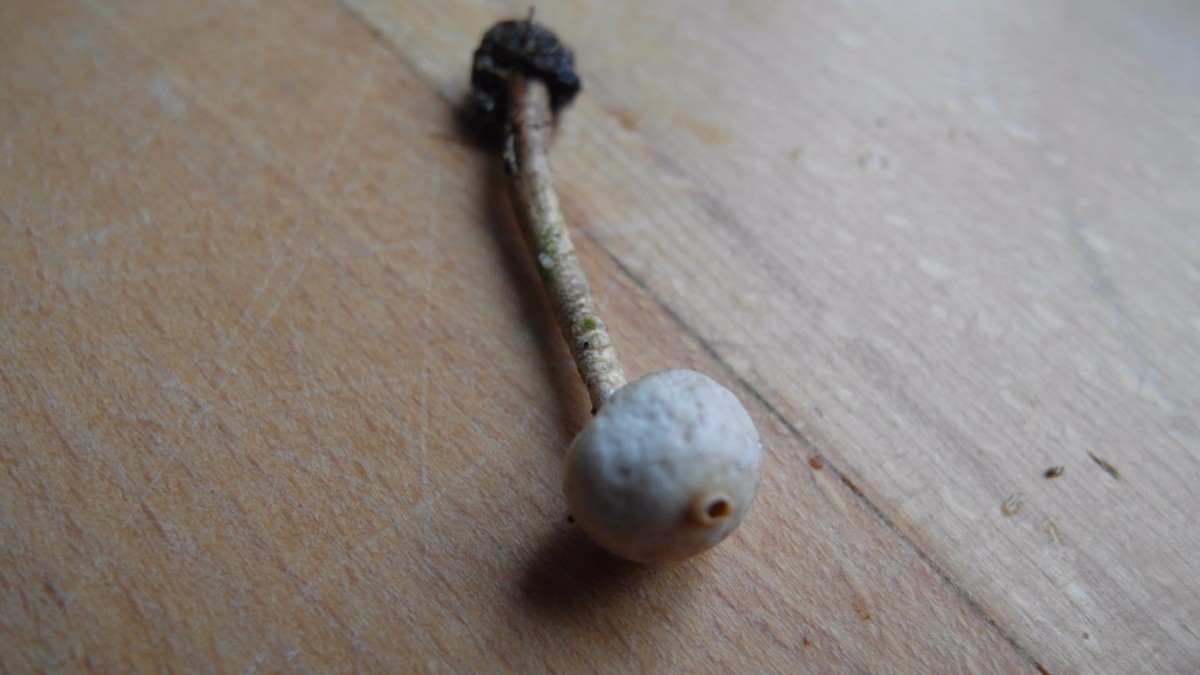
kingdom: Fungi
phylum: Basidiomycota
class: Agaricomycetes
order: Agaricales
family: Agaricaceae
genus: Tulostoma
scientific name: Tulostoma brumale
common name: vinter-stilkbovist
